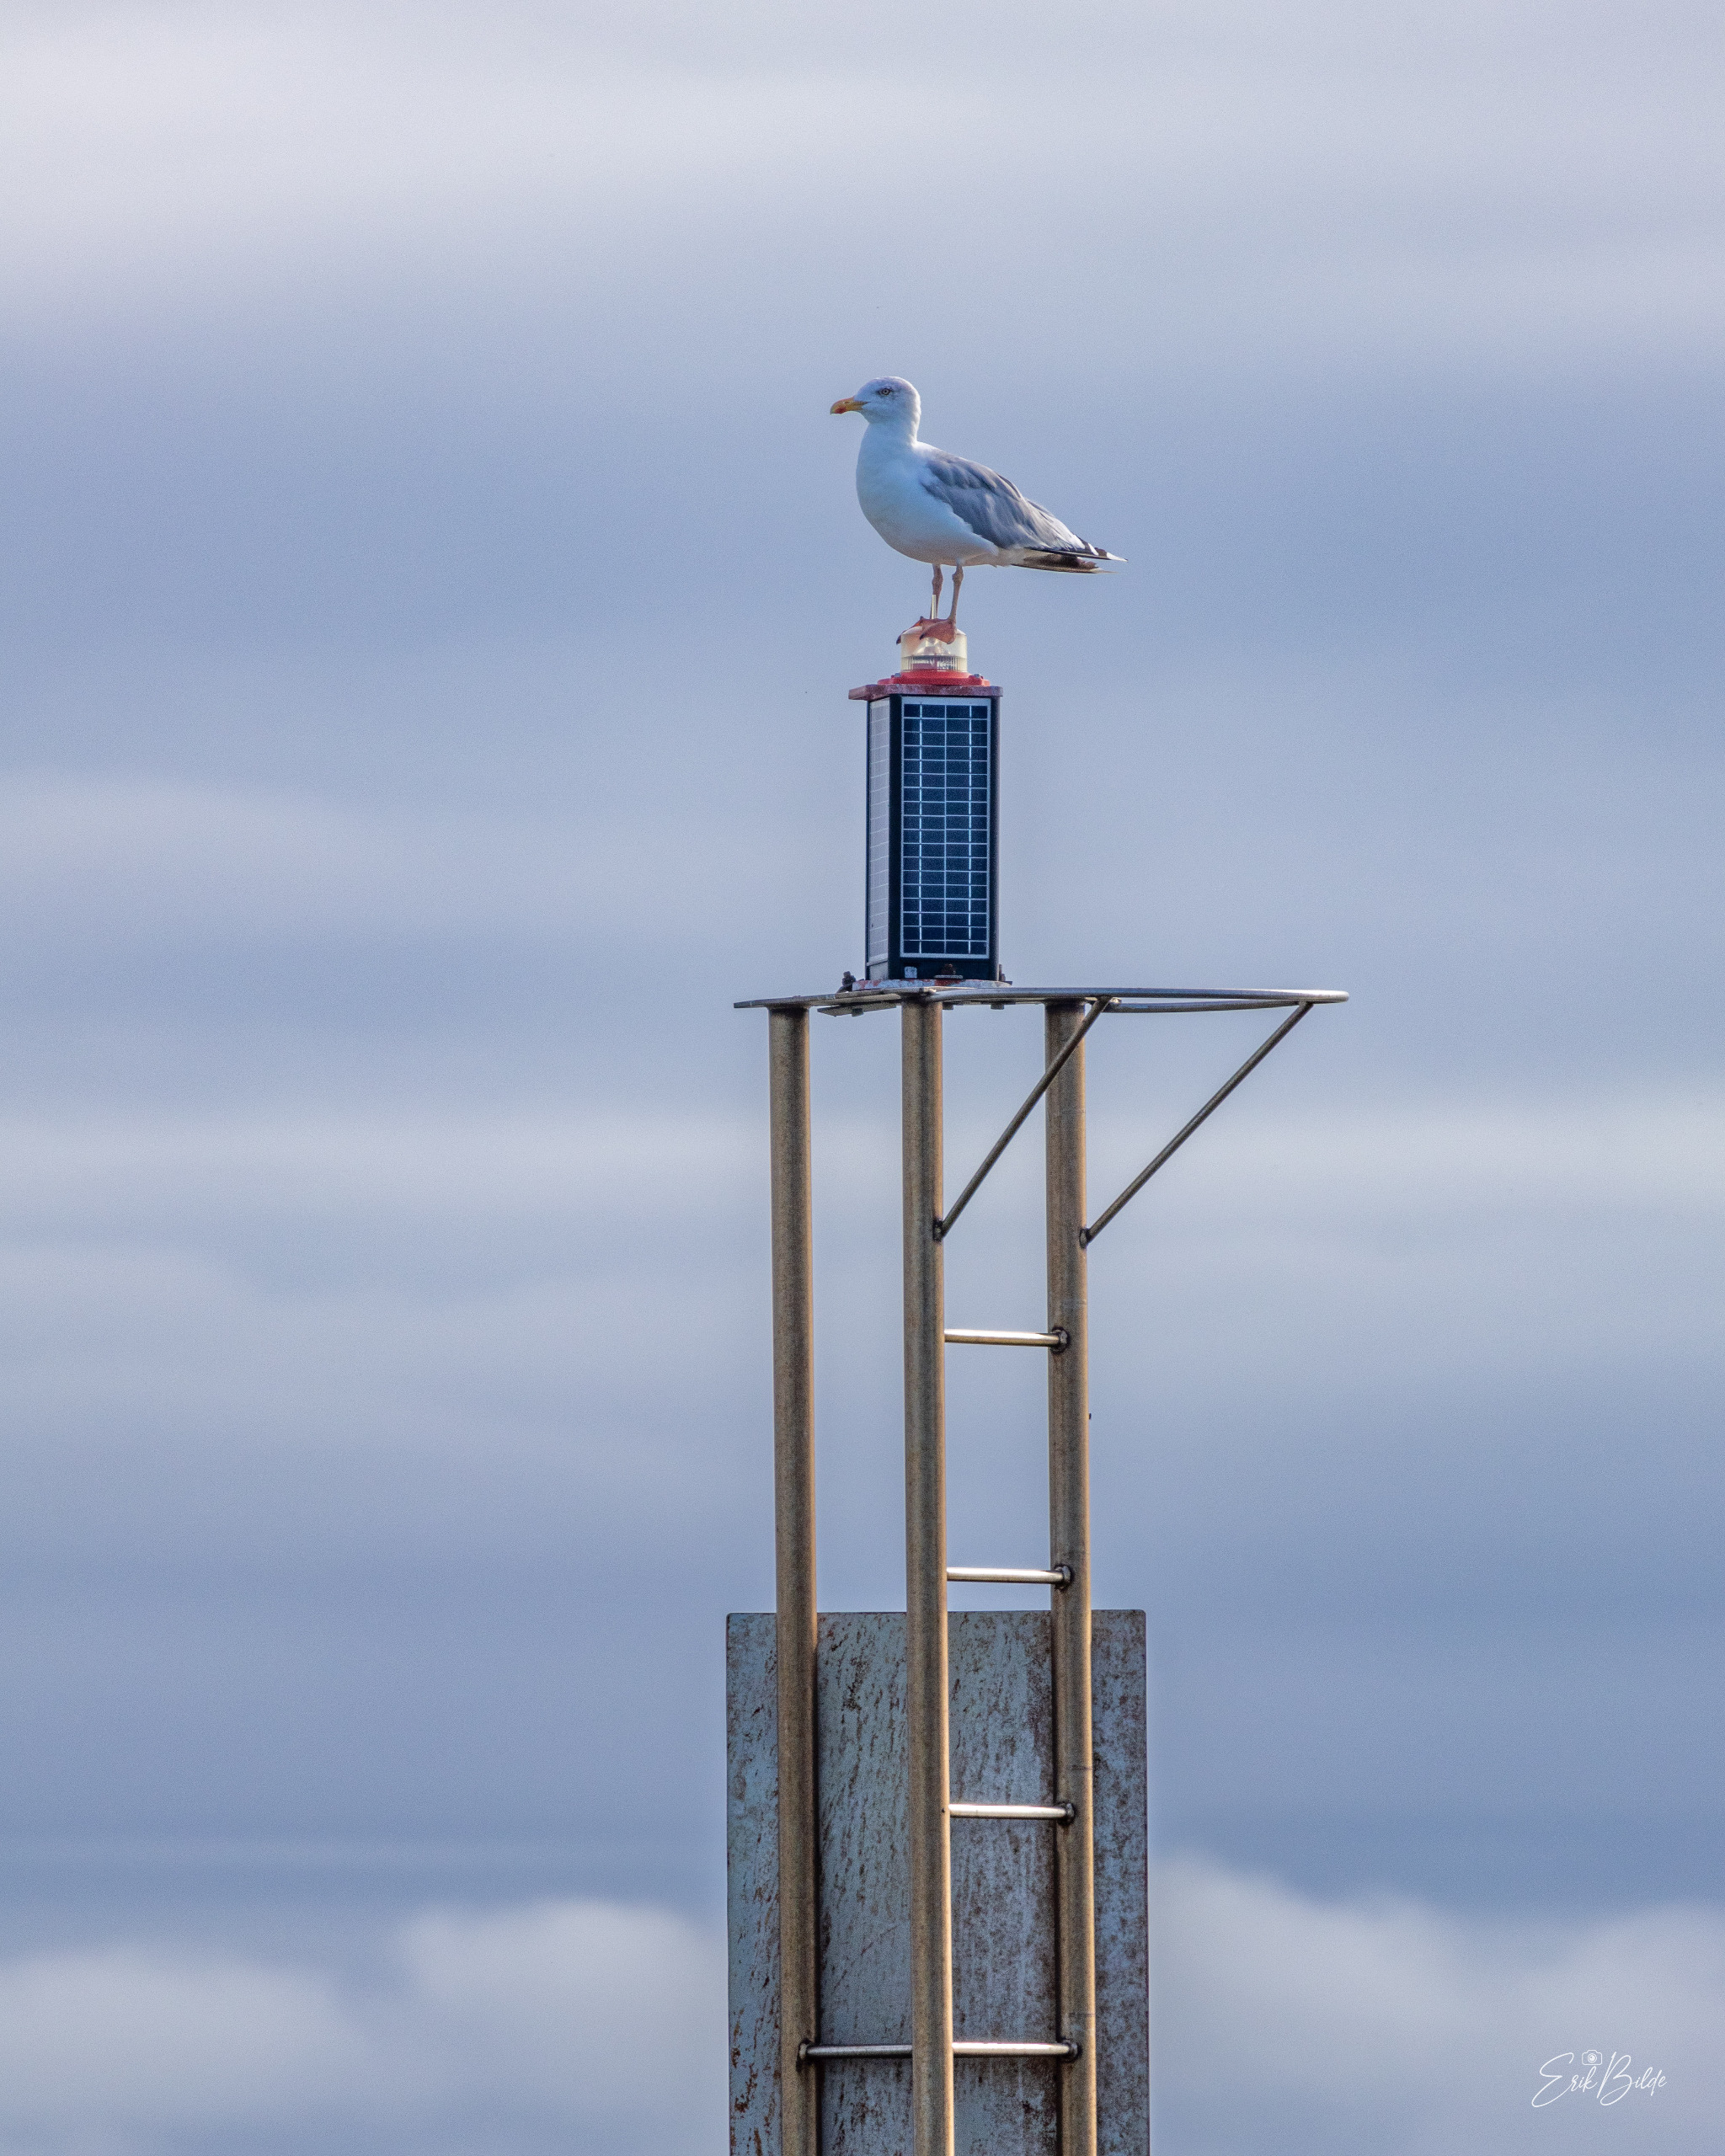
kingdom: Animalia
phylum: Chordata
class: Aves
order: Charadriiformes
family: Laridae
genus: Larus
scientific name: Larus argentatus
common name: Sølvmåge
